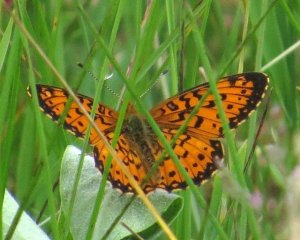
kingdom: Animalia
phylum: Arthropoda
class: Insecta
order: Lepidoptera
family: Nymphalidae
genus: Boloria
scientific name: Boloria selene
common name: Silver-bordered Fritillary
